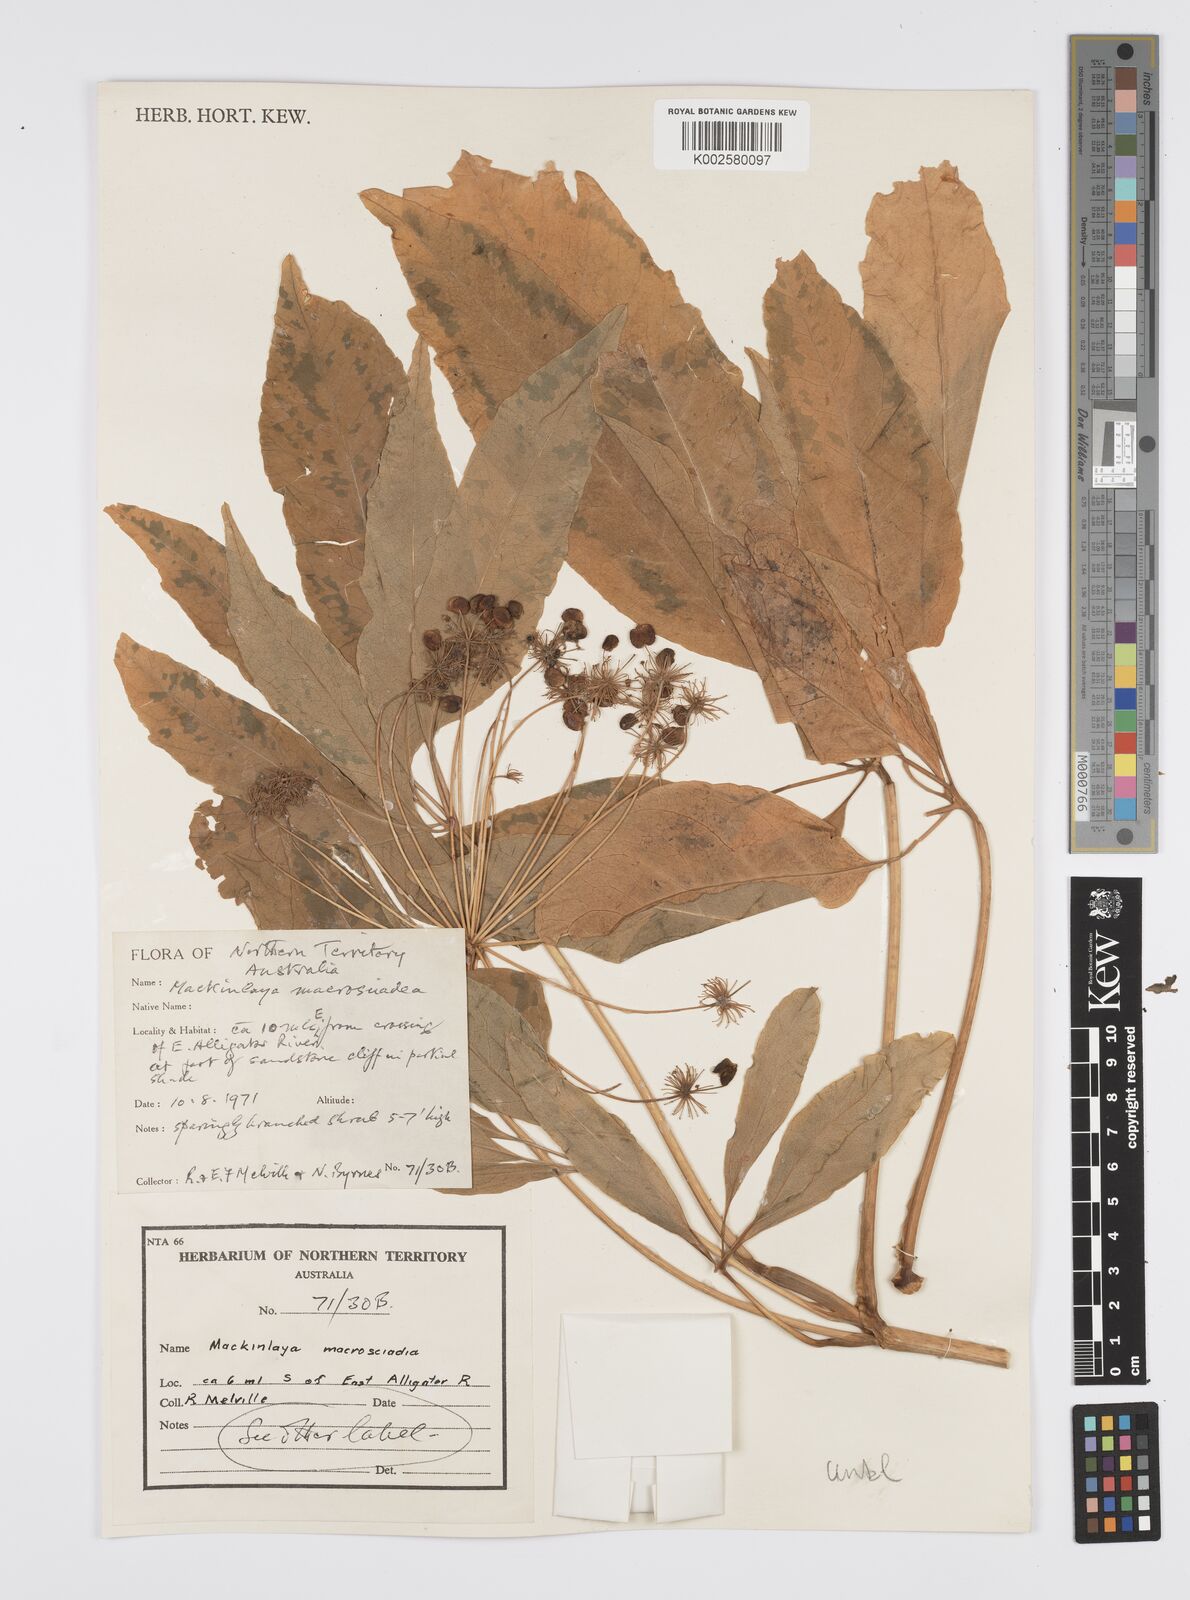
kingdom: Plantae
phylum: Tracheophyta
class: Magnoliopsida
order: Apiales
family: Apiaceae
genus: Mackinlaya
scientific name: Mackinlaya macrosciadea
